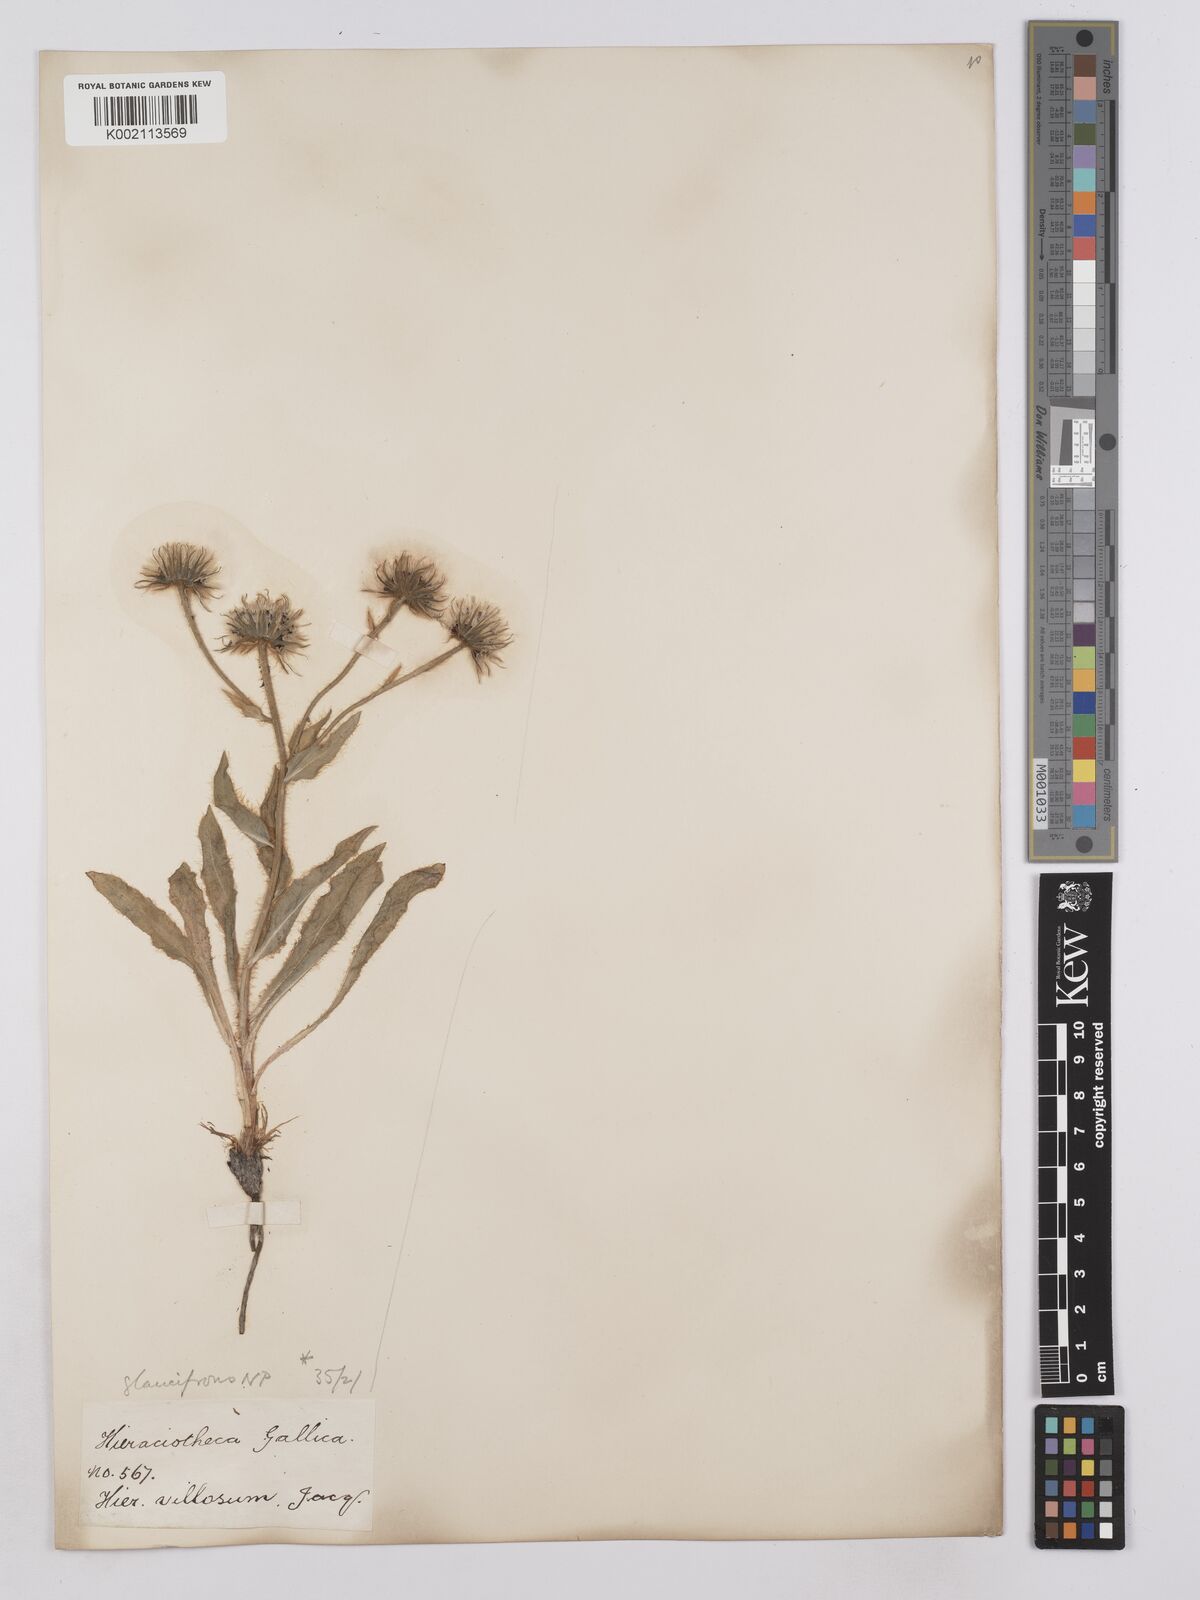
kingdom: Plantae
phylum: Tracheophyta
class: Magnoliopsida
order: Asterales
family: Asteraceae
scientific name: Asteraceae
